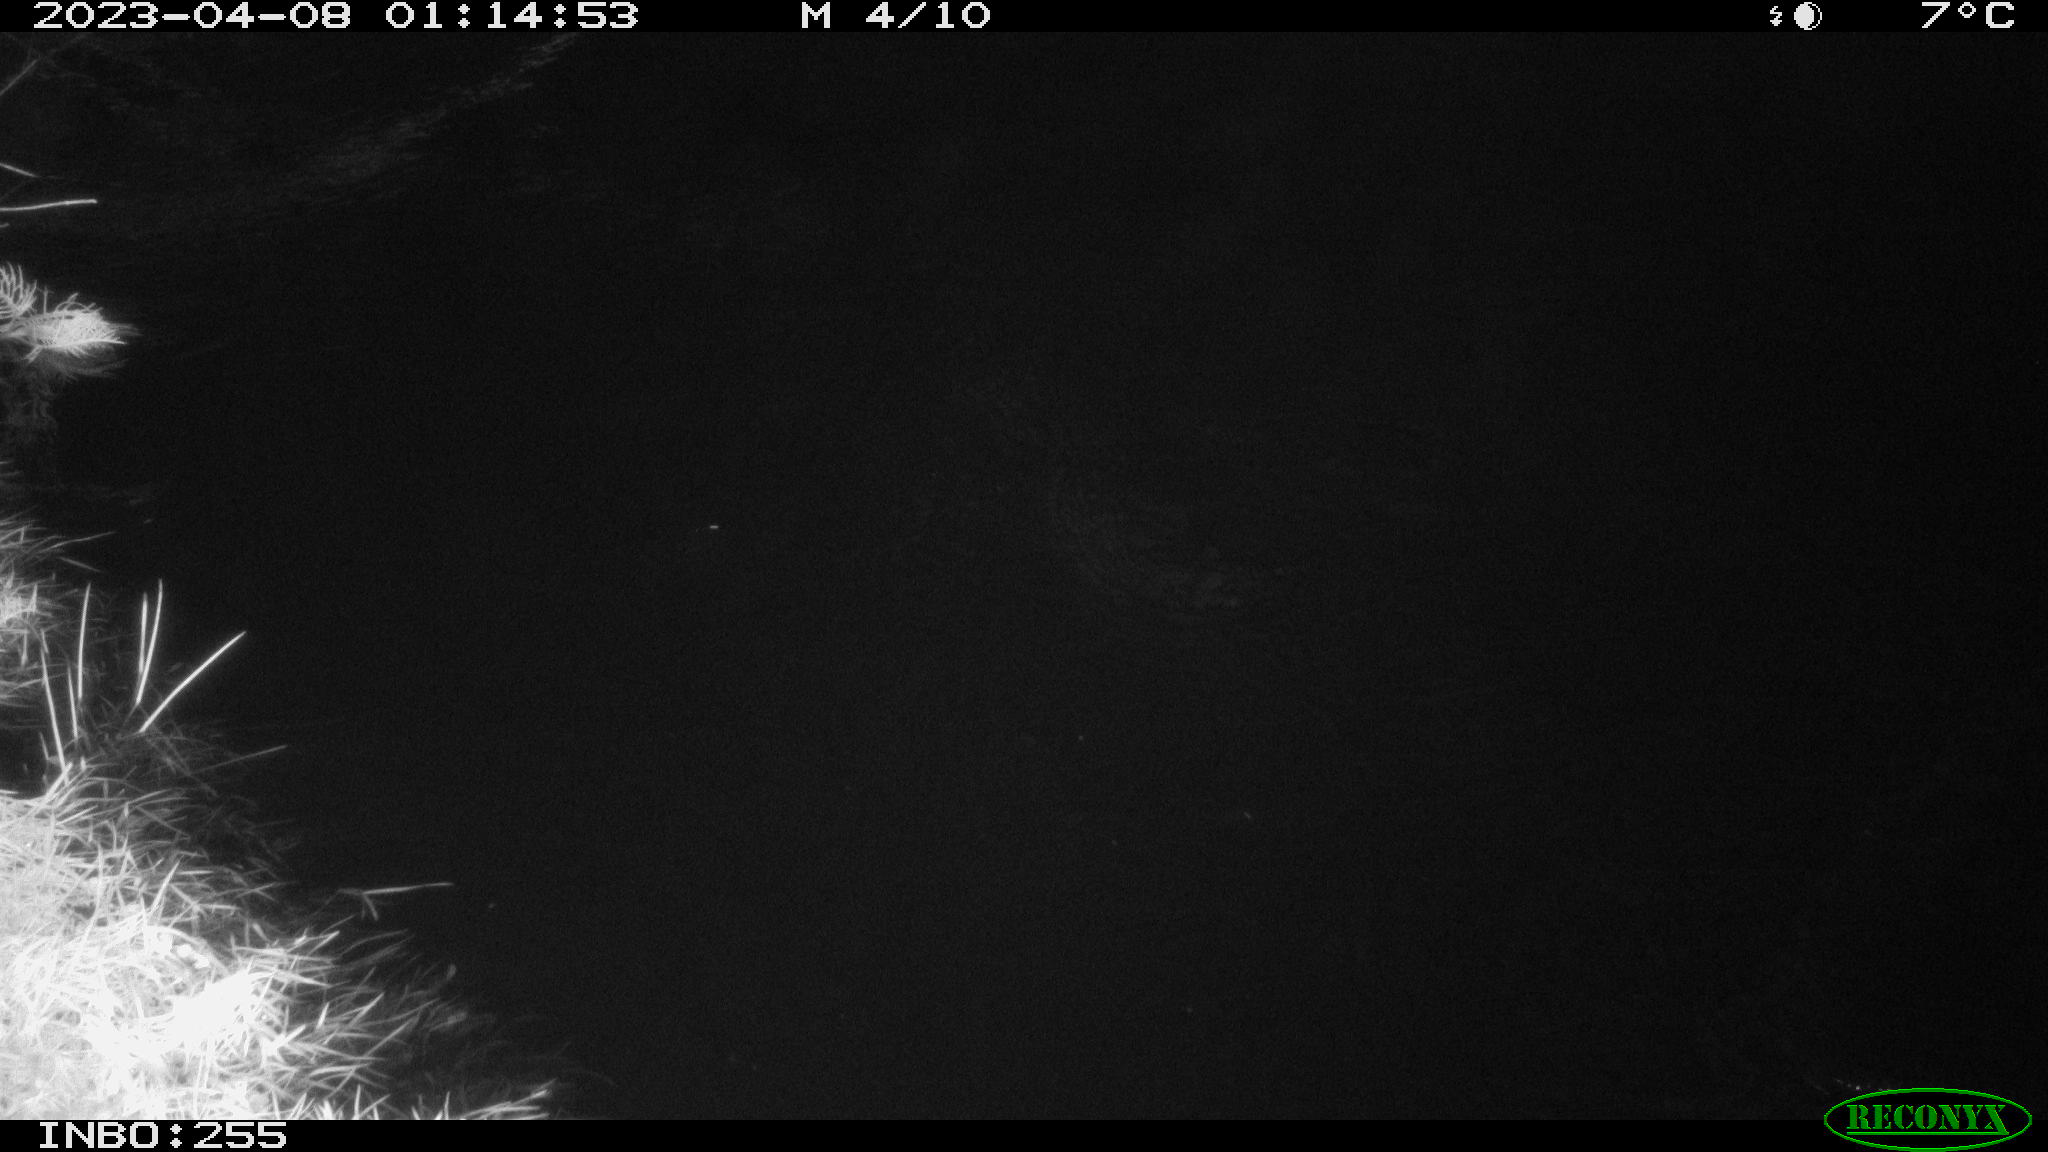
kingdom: Animalia
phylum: Chordata
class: Mammalia
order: Rodentia
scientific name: Rodentia
